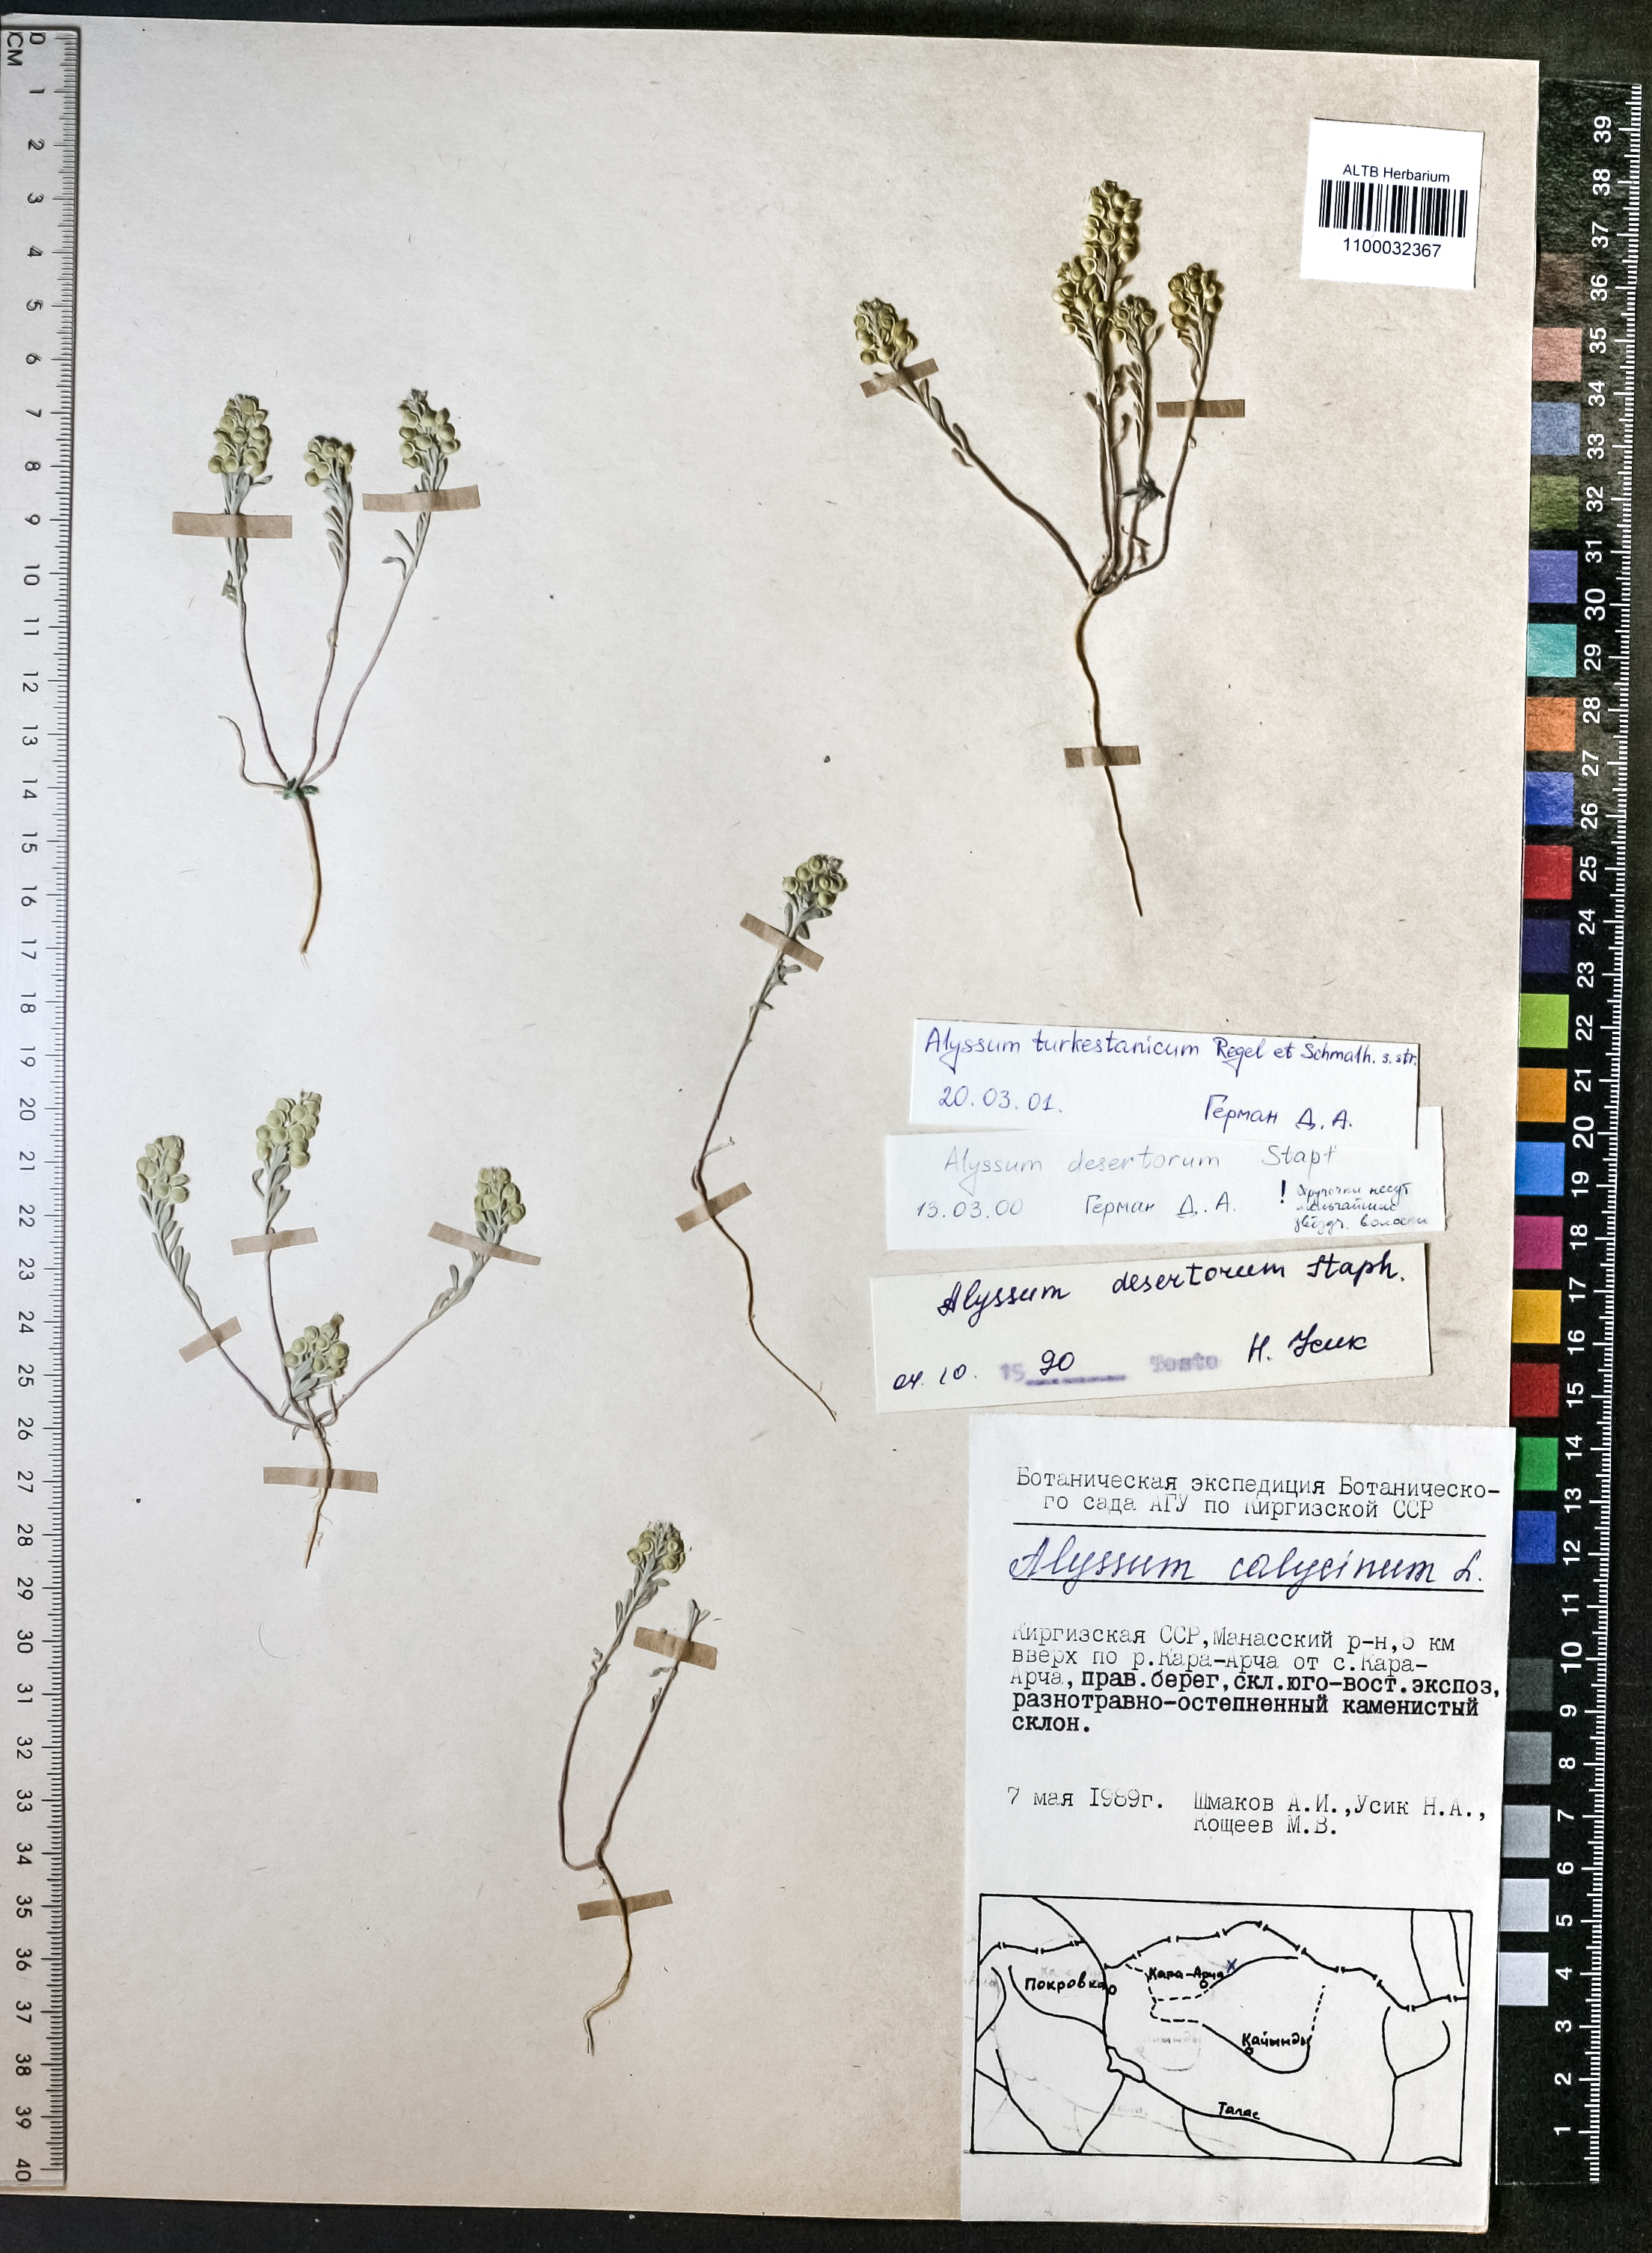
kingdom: Plantae
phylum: Tracheophyta
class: Magnoliopsida
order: Brassicales
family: Brassicaceae
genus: Alyssum
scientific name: Alyssum alyssoides
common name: Small alison
